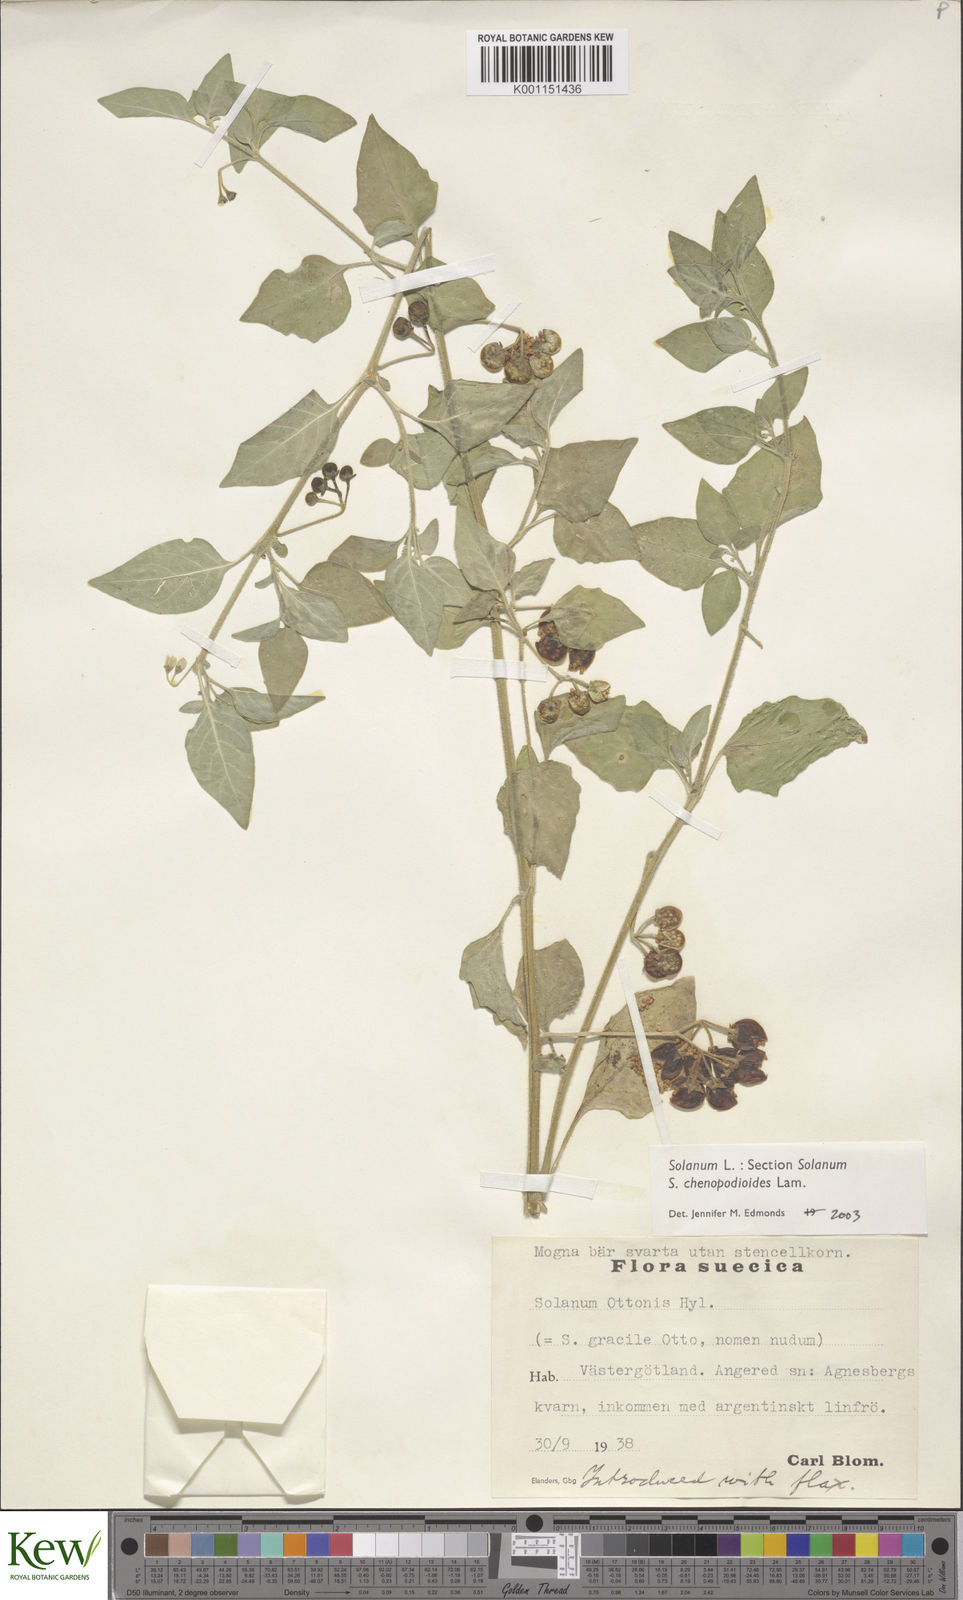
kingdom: Plantae
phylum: Tracheophyta
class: Magnoliopsida
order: Solanales
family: Solanaceae
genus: Solanum
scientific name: Solanum chenopodioides
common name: Tall nightshade
